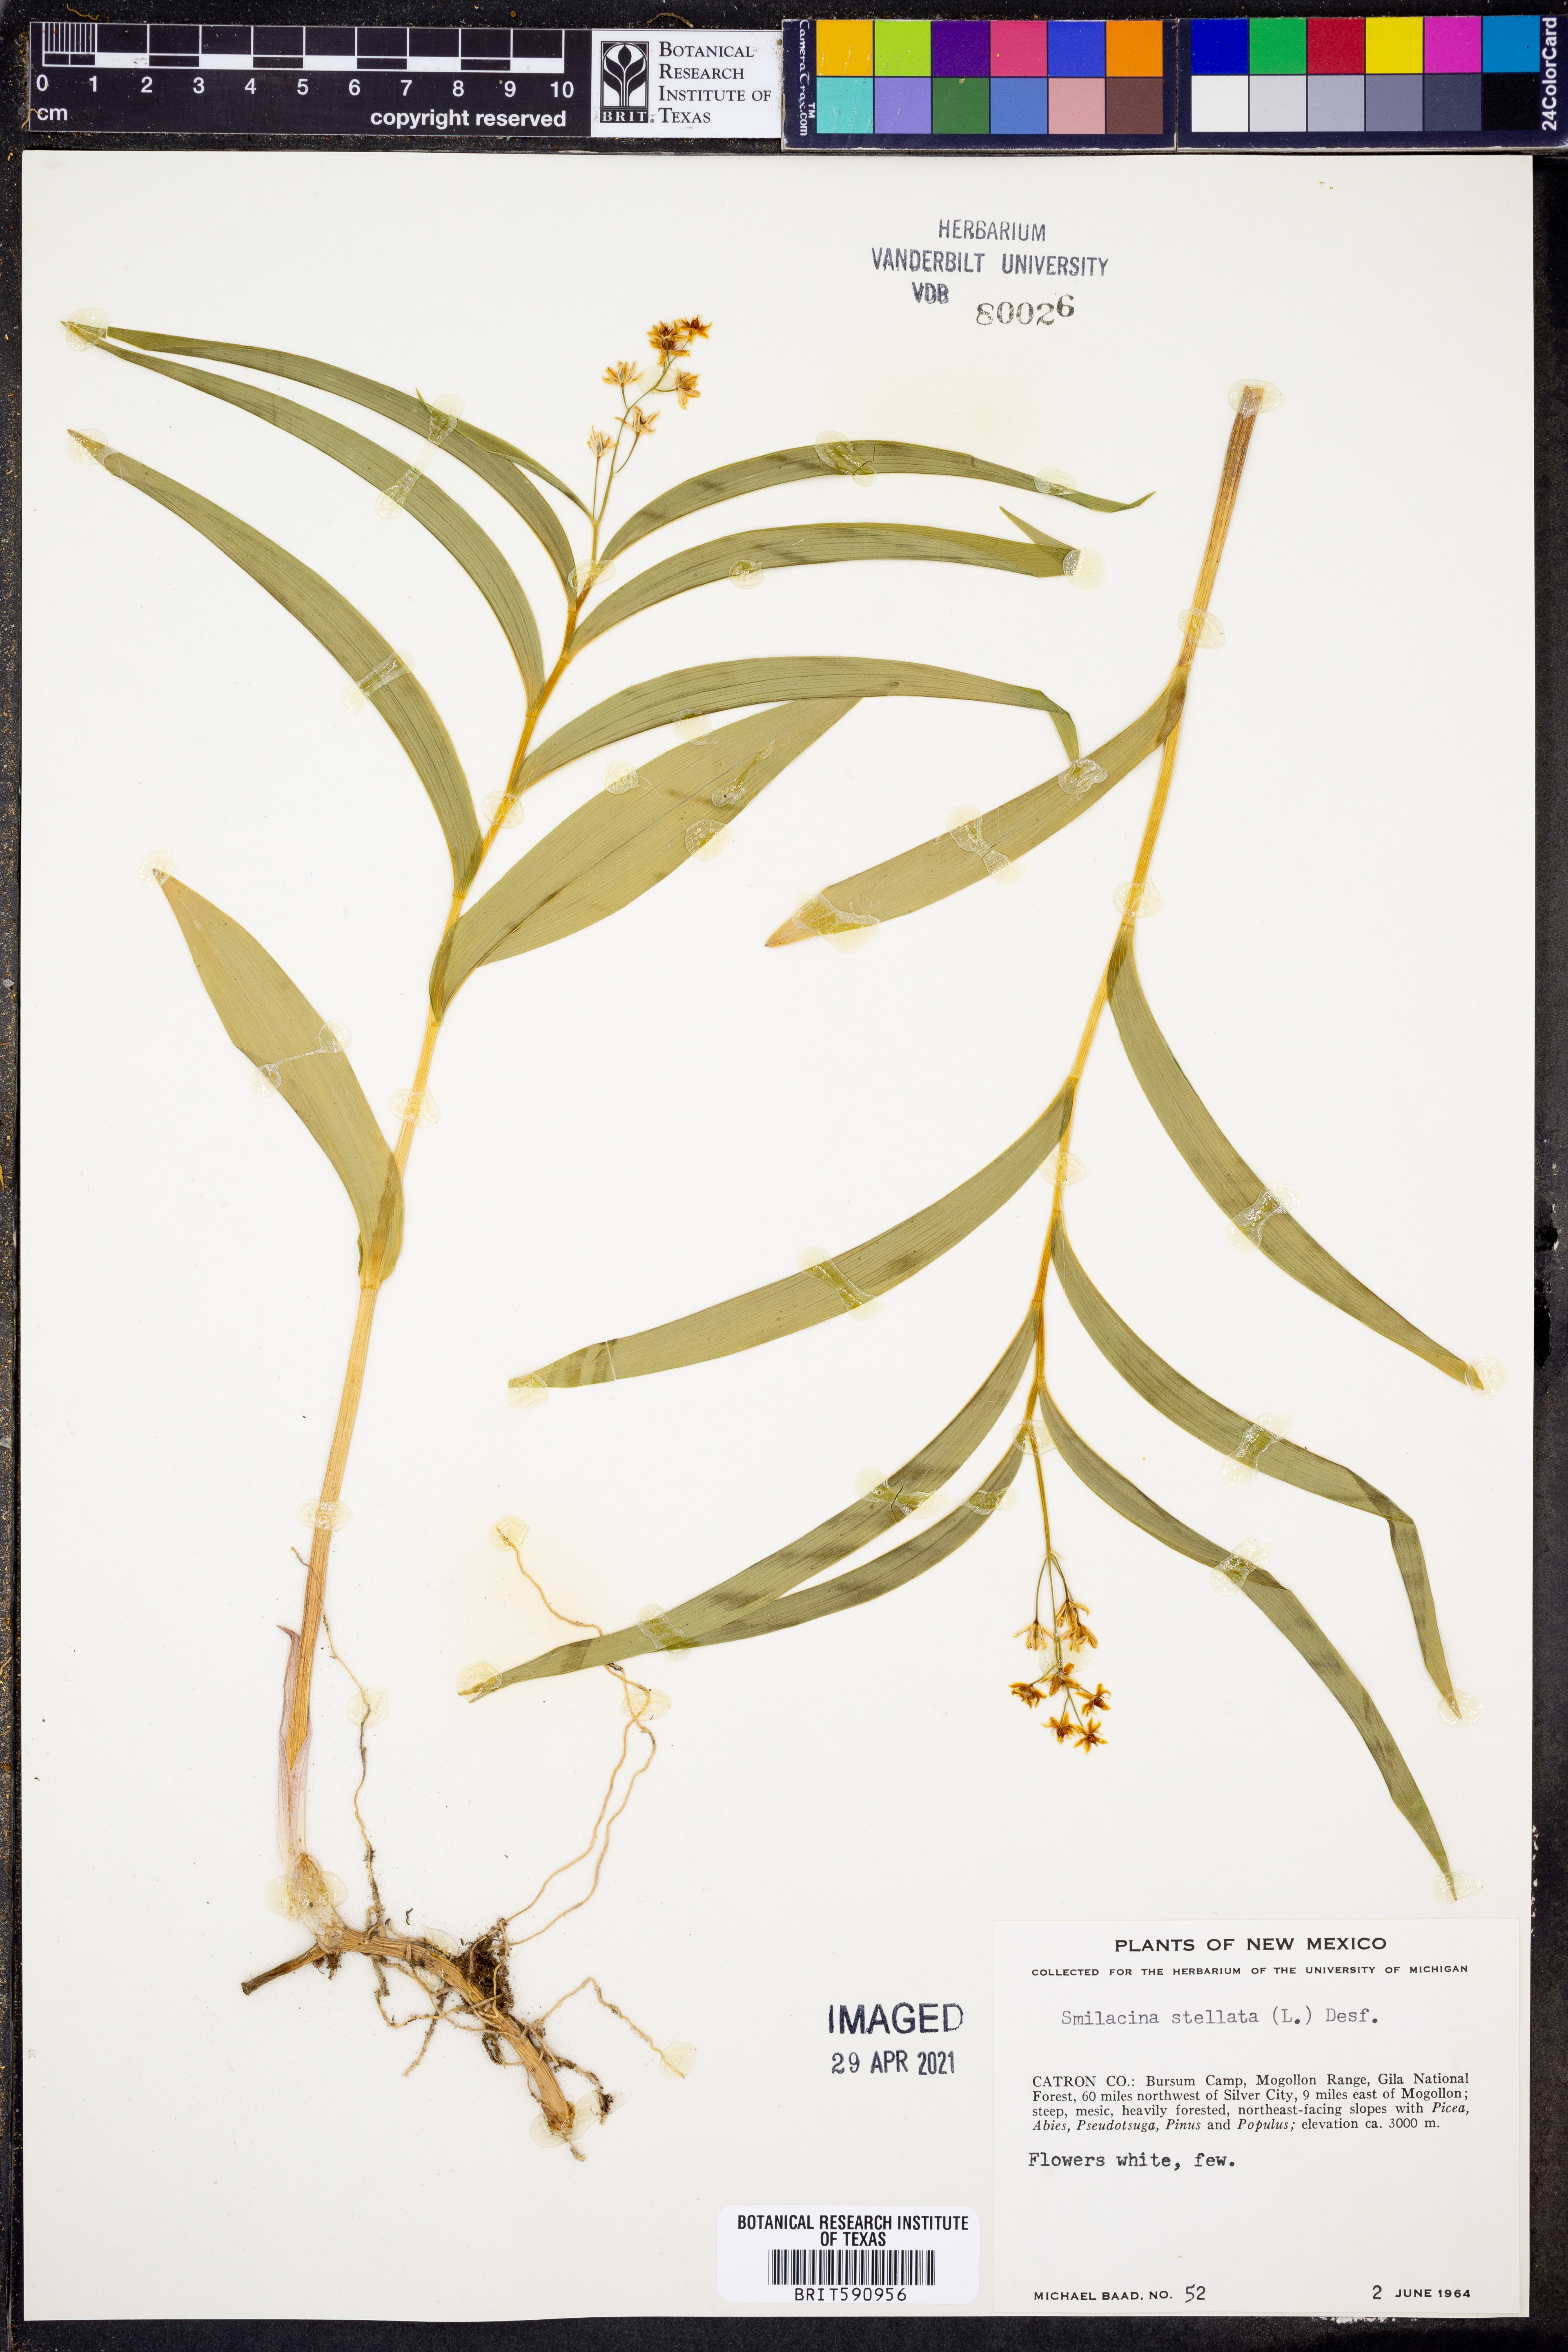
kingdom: Plantae
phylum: Tracheophyta
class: Liliopsida
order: Asparagales
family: Asparagaceae
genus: Maianthemum
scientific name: Maianthemum stellatum
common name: Little false solomon's seal
